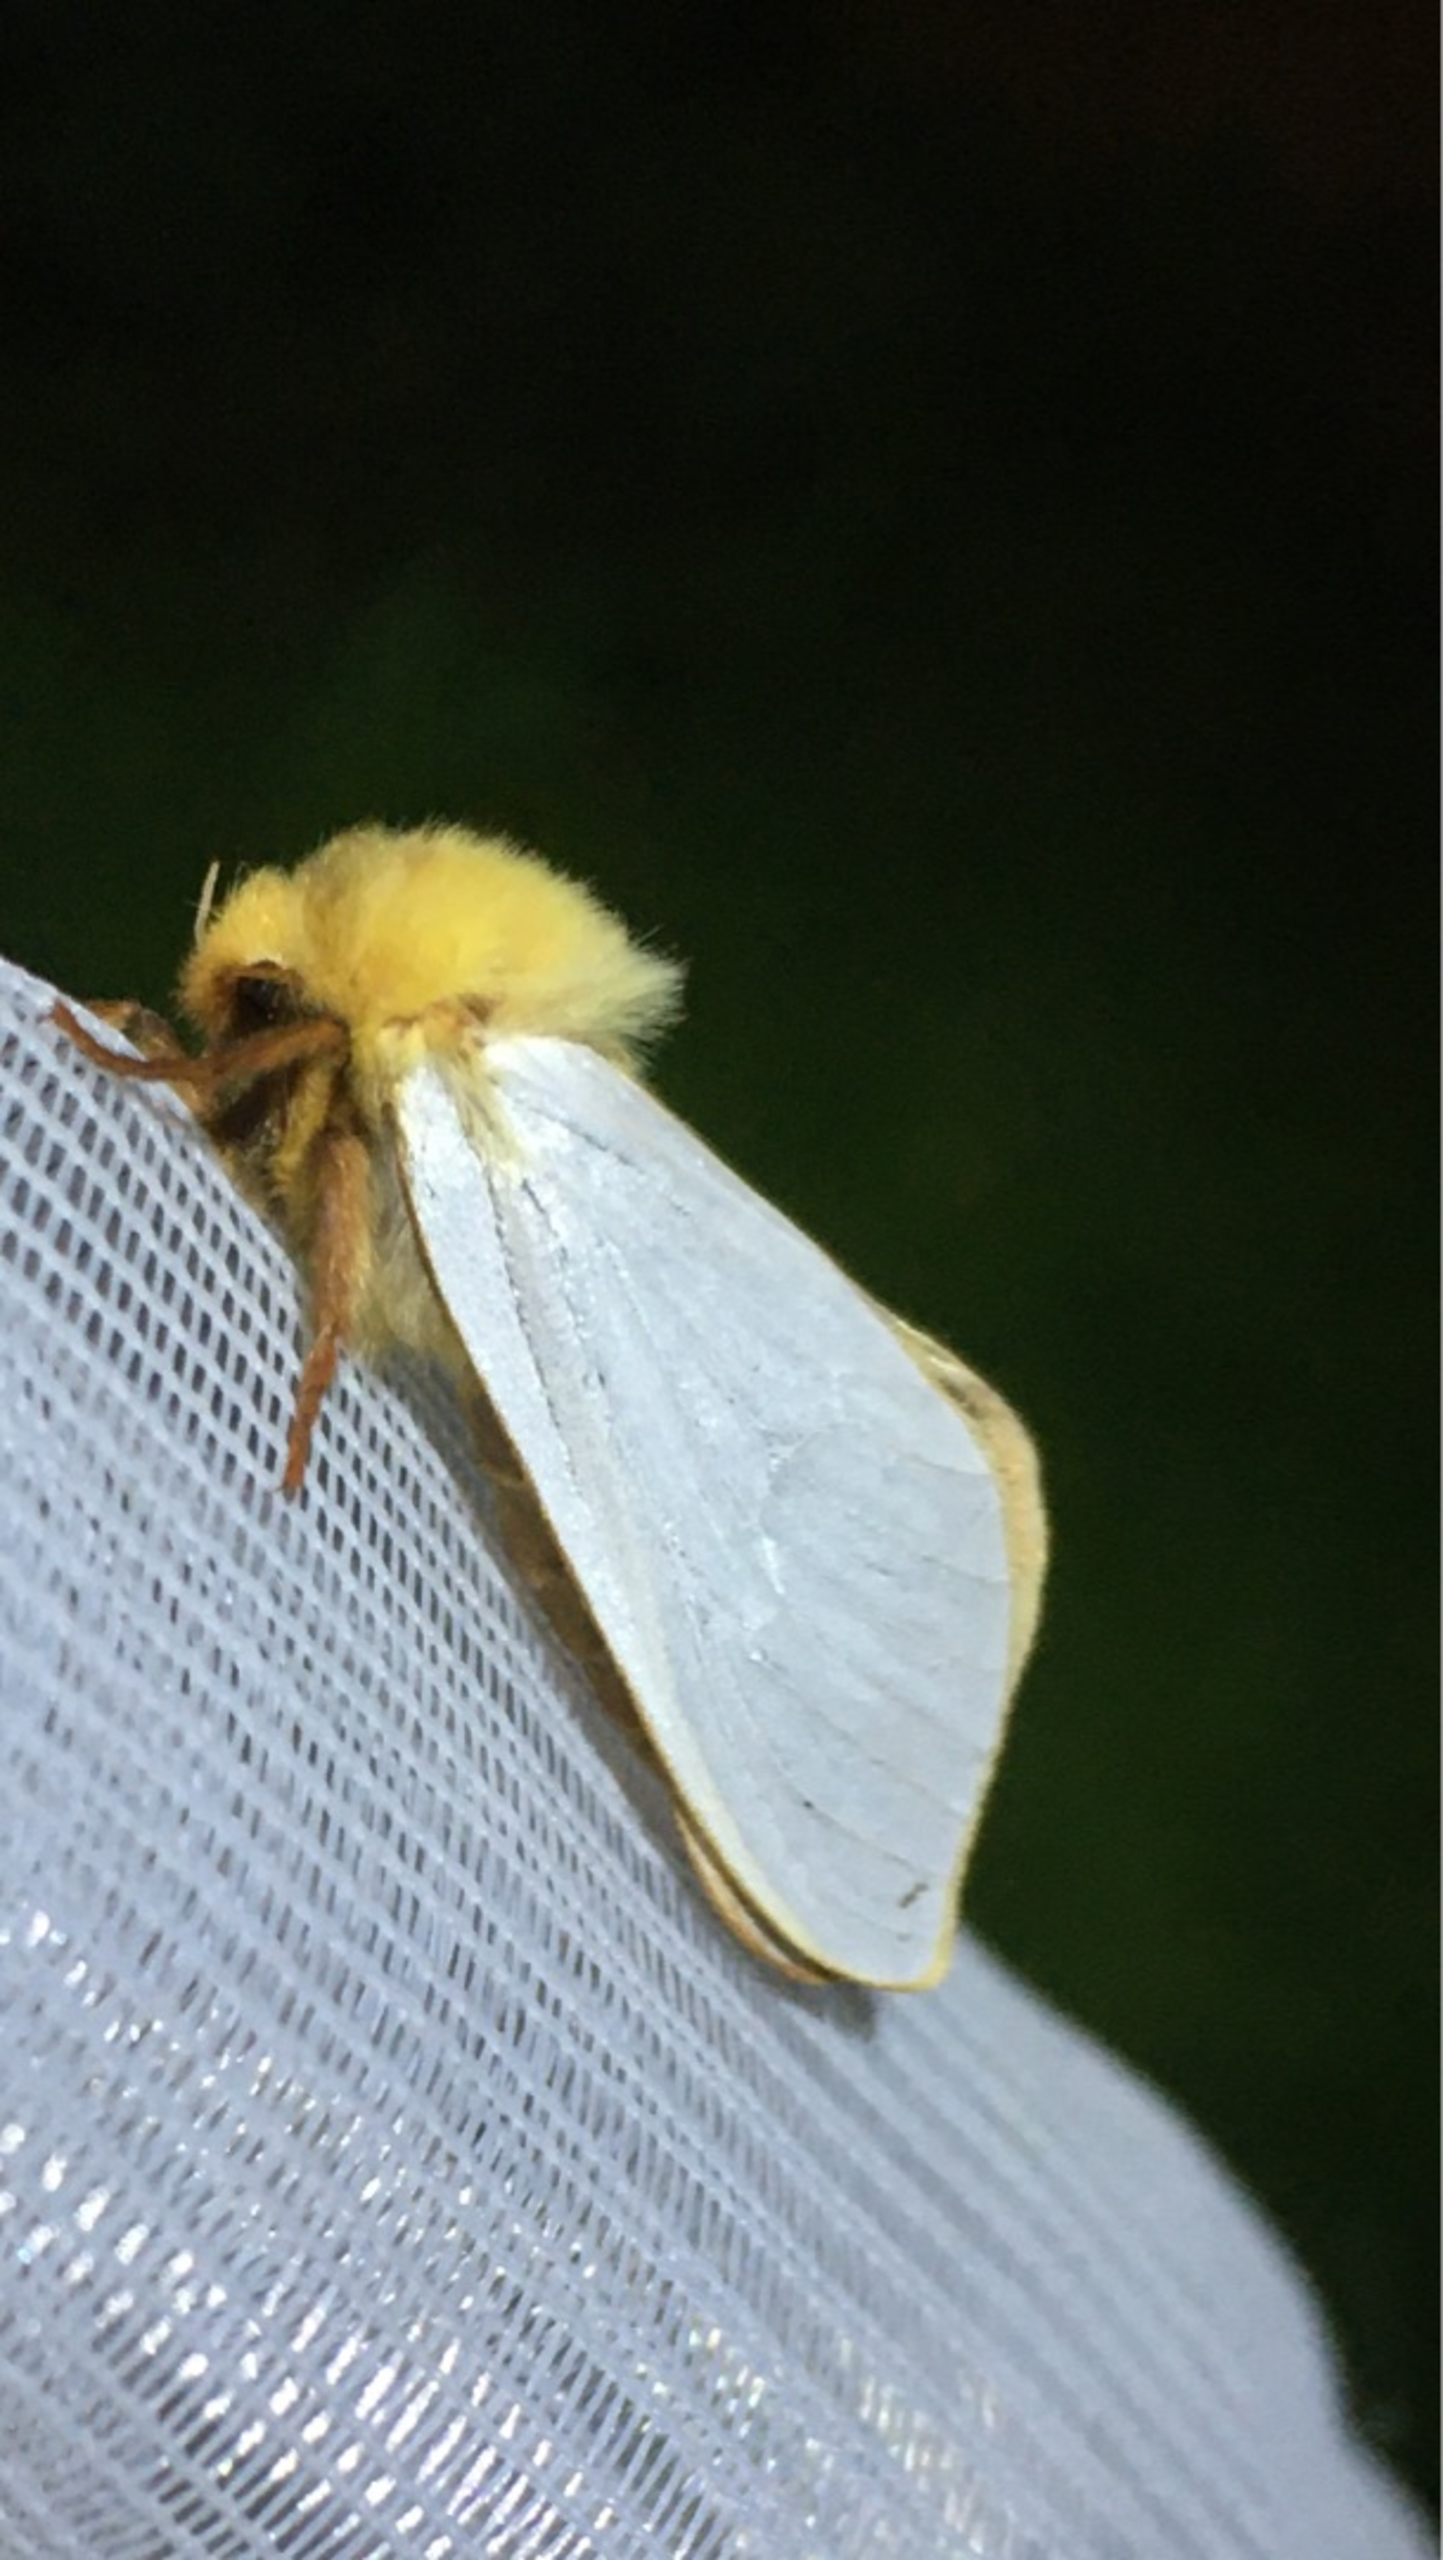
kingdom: Animalia
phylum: Arthropoda
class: Insecta
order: Lepidoptera
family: Hepialidae
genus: Hepialus
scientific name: Hepialus humuli
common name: Humlerodæder
